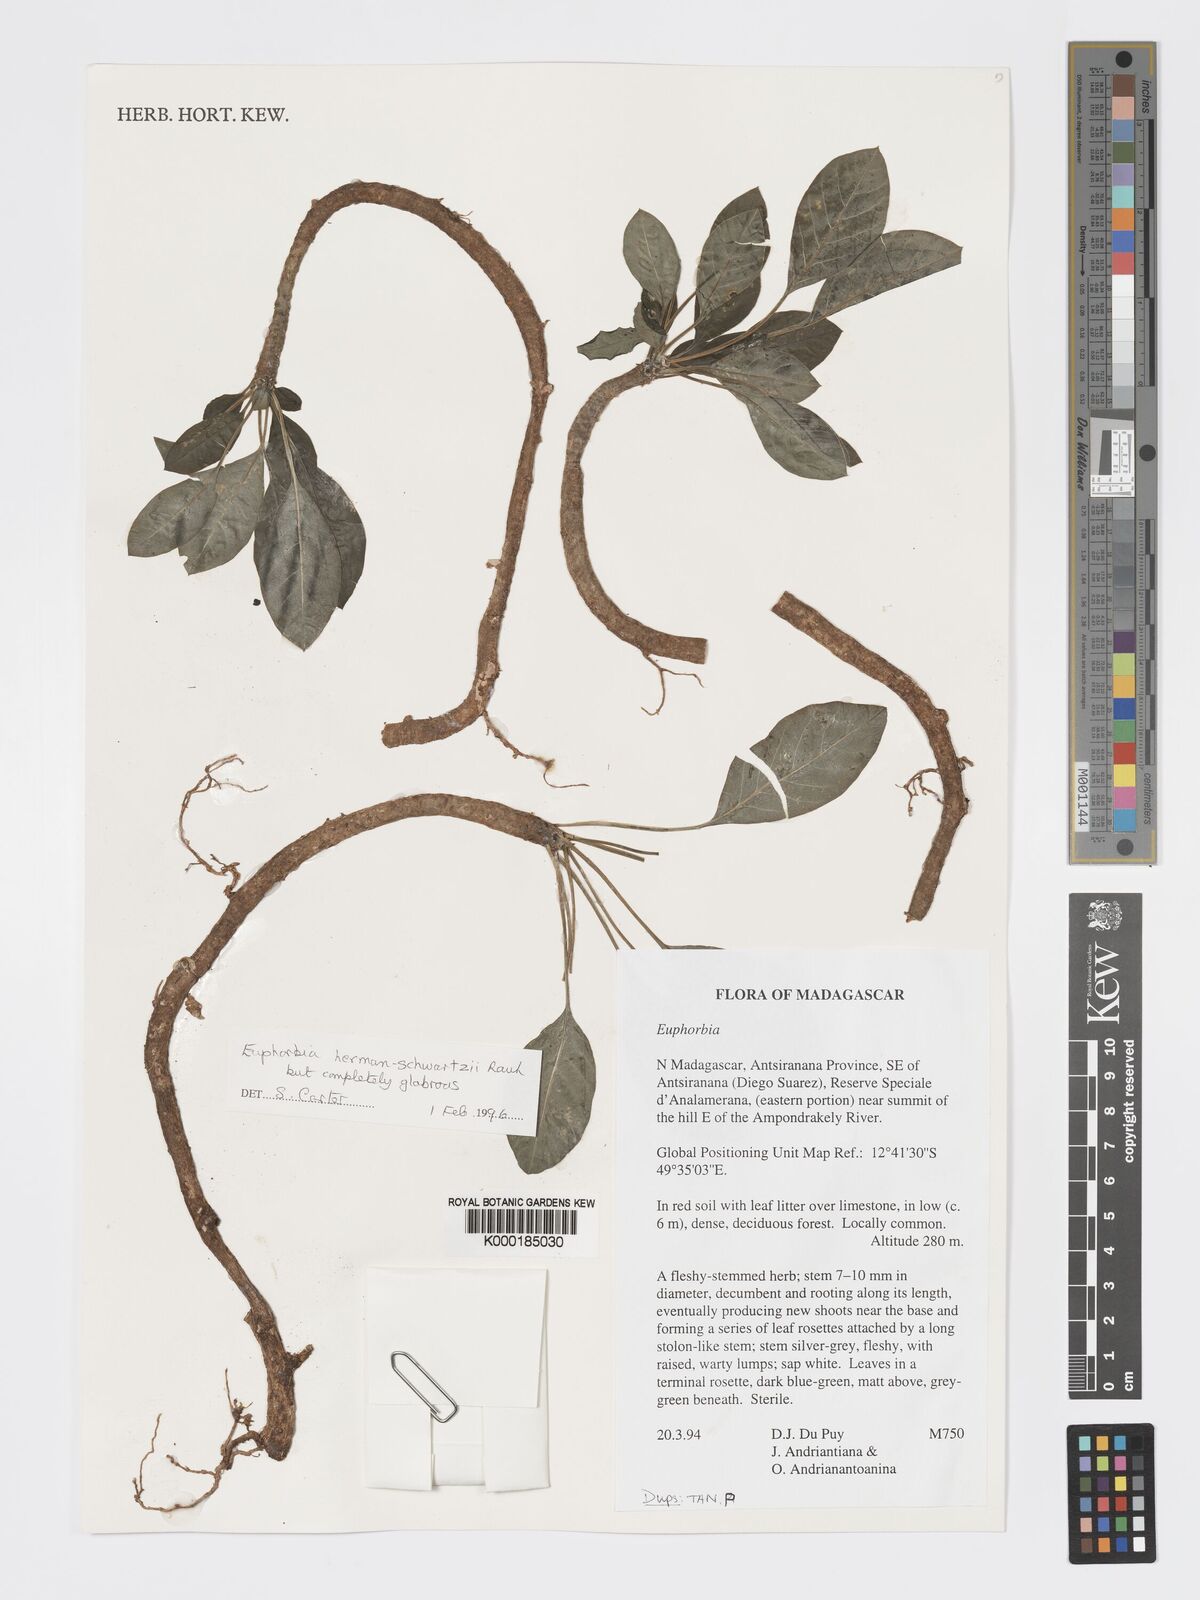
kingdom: Plantae
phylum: Tracheophyta
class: Magnoliopsida
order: Malpighiales
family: Euphorbiaceae
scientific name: Euphorbiaceae
